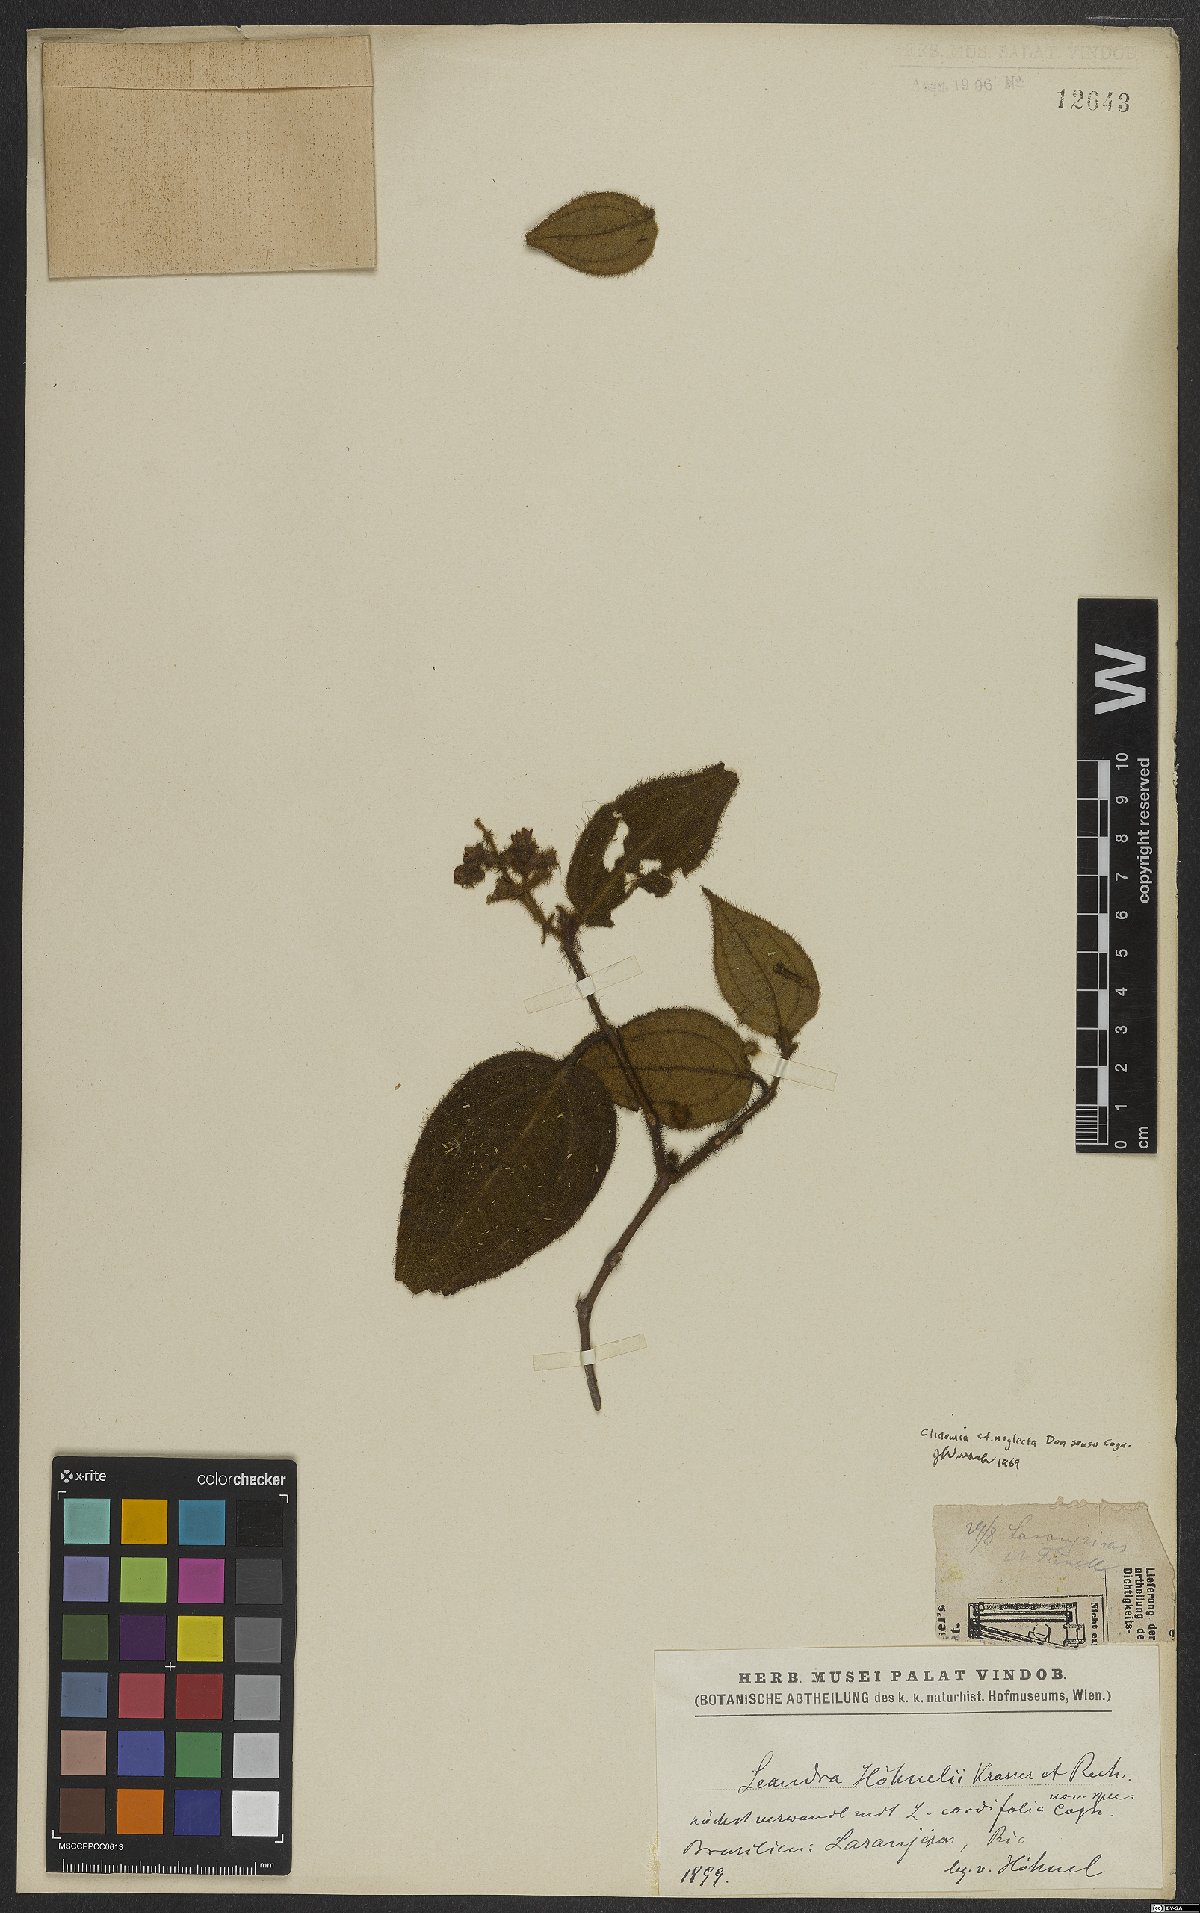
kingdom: Plantae
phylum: Tracheophyta
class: Magnoliopsida
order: Myrtales
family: Melastomataceae
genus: Miconia
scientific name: Miconia leacordifolia
